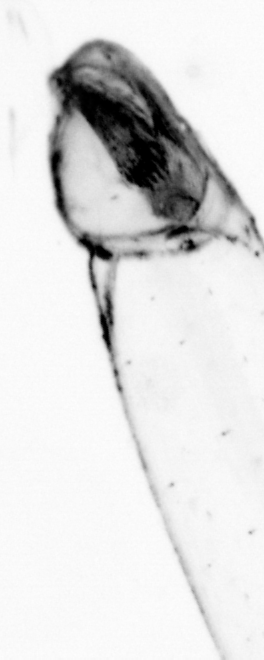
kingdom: Animalia
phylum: Chaetognatha
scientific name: Chaetognatha
